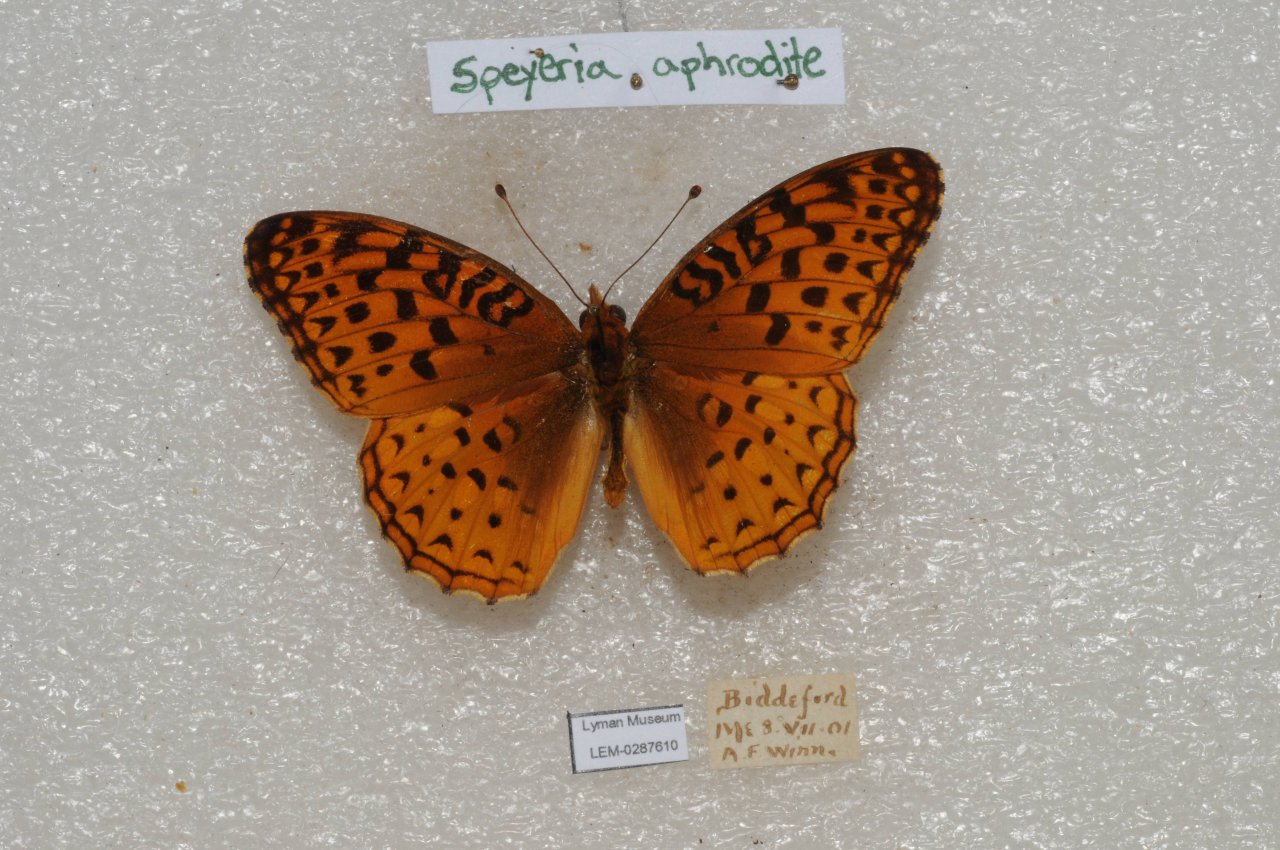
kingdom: Animalia
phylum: Arthropoda
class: Insecta
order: Lepidoptera
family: Nymphalidae
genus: Speyeria
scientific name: Speyeria aphrodite
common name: Aphrodite Fritillary
